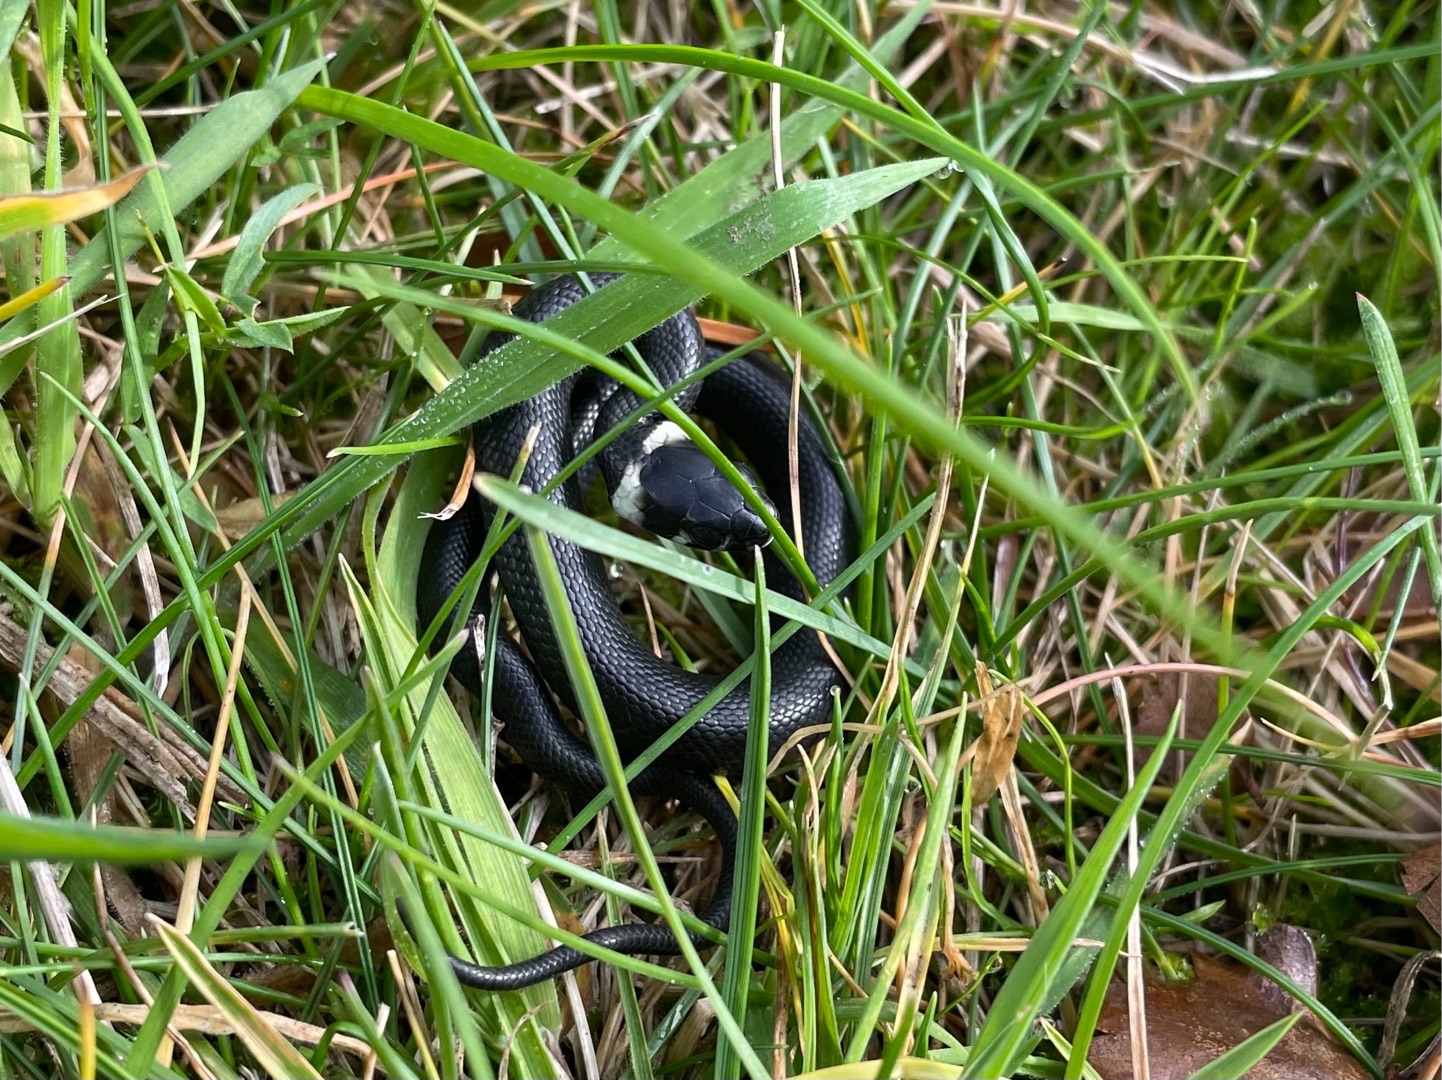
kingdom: Animalia
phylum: Chordata
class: Squamata
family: Colubridae
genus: Natrix
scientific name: Natrix natrix
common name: Snog
